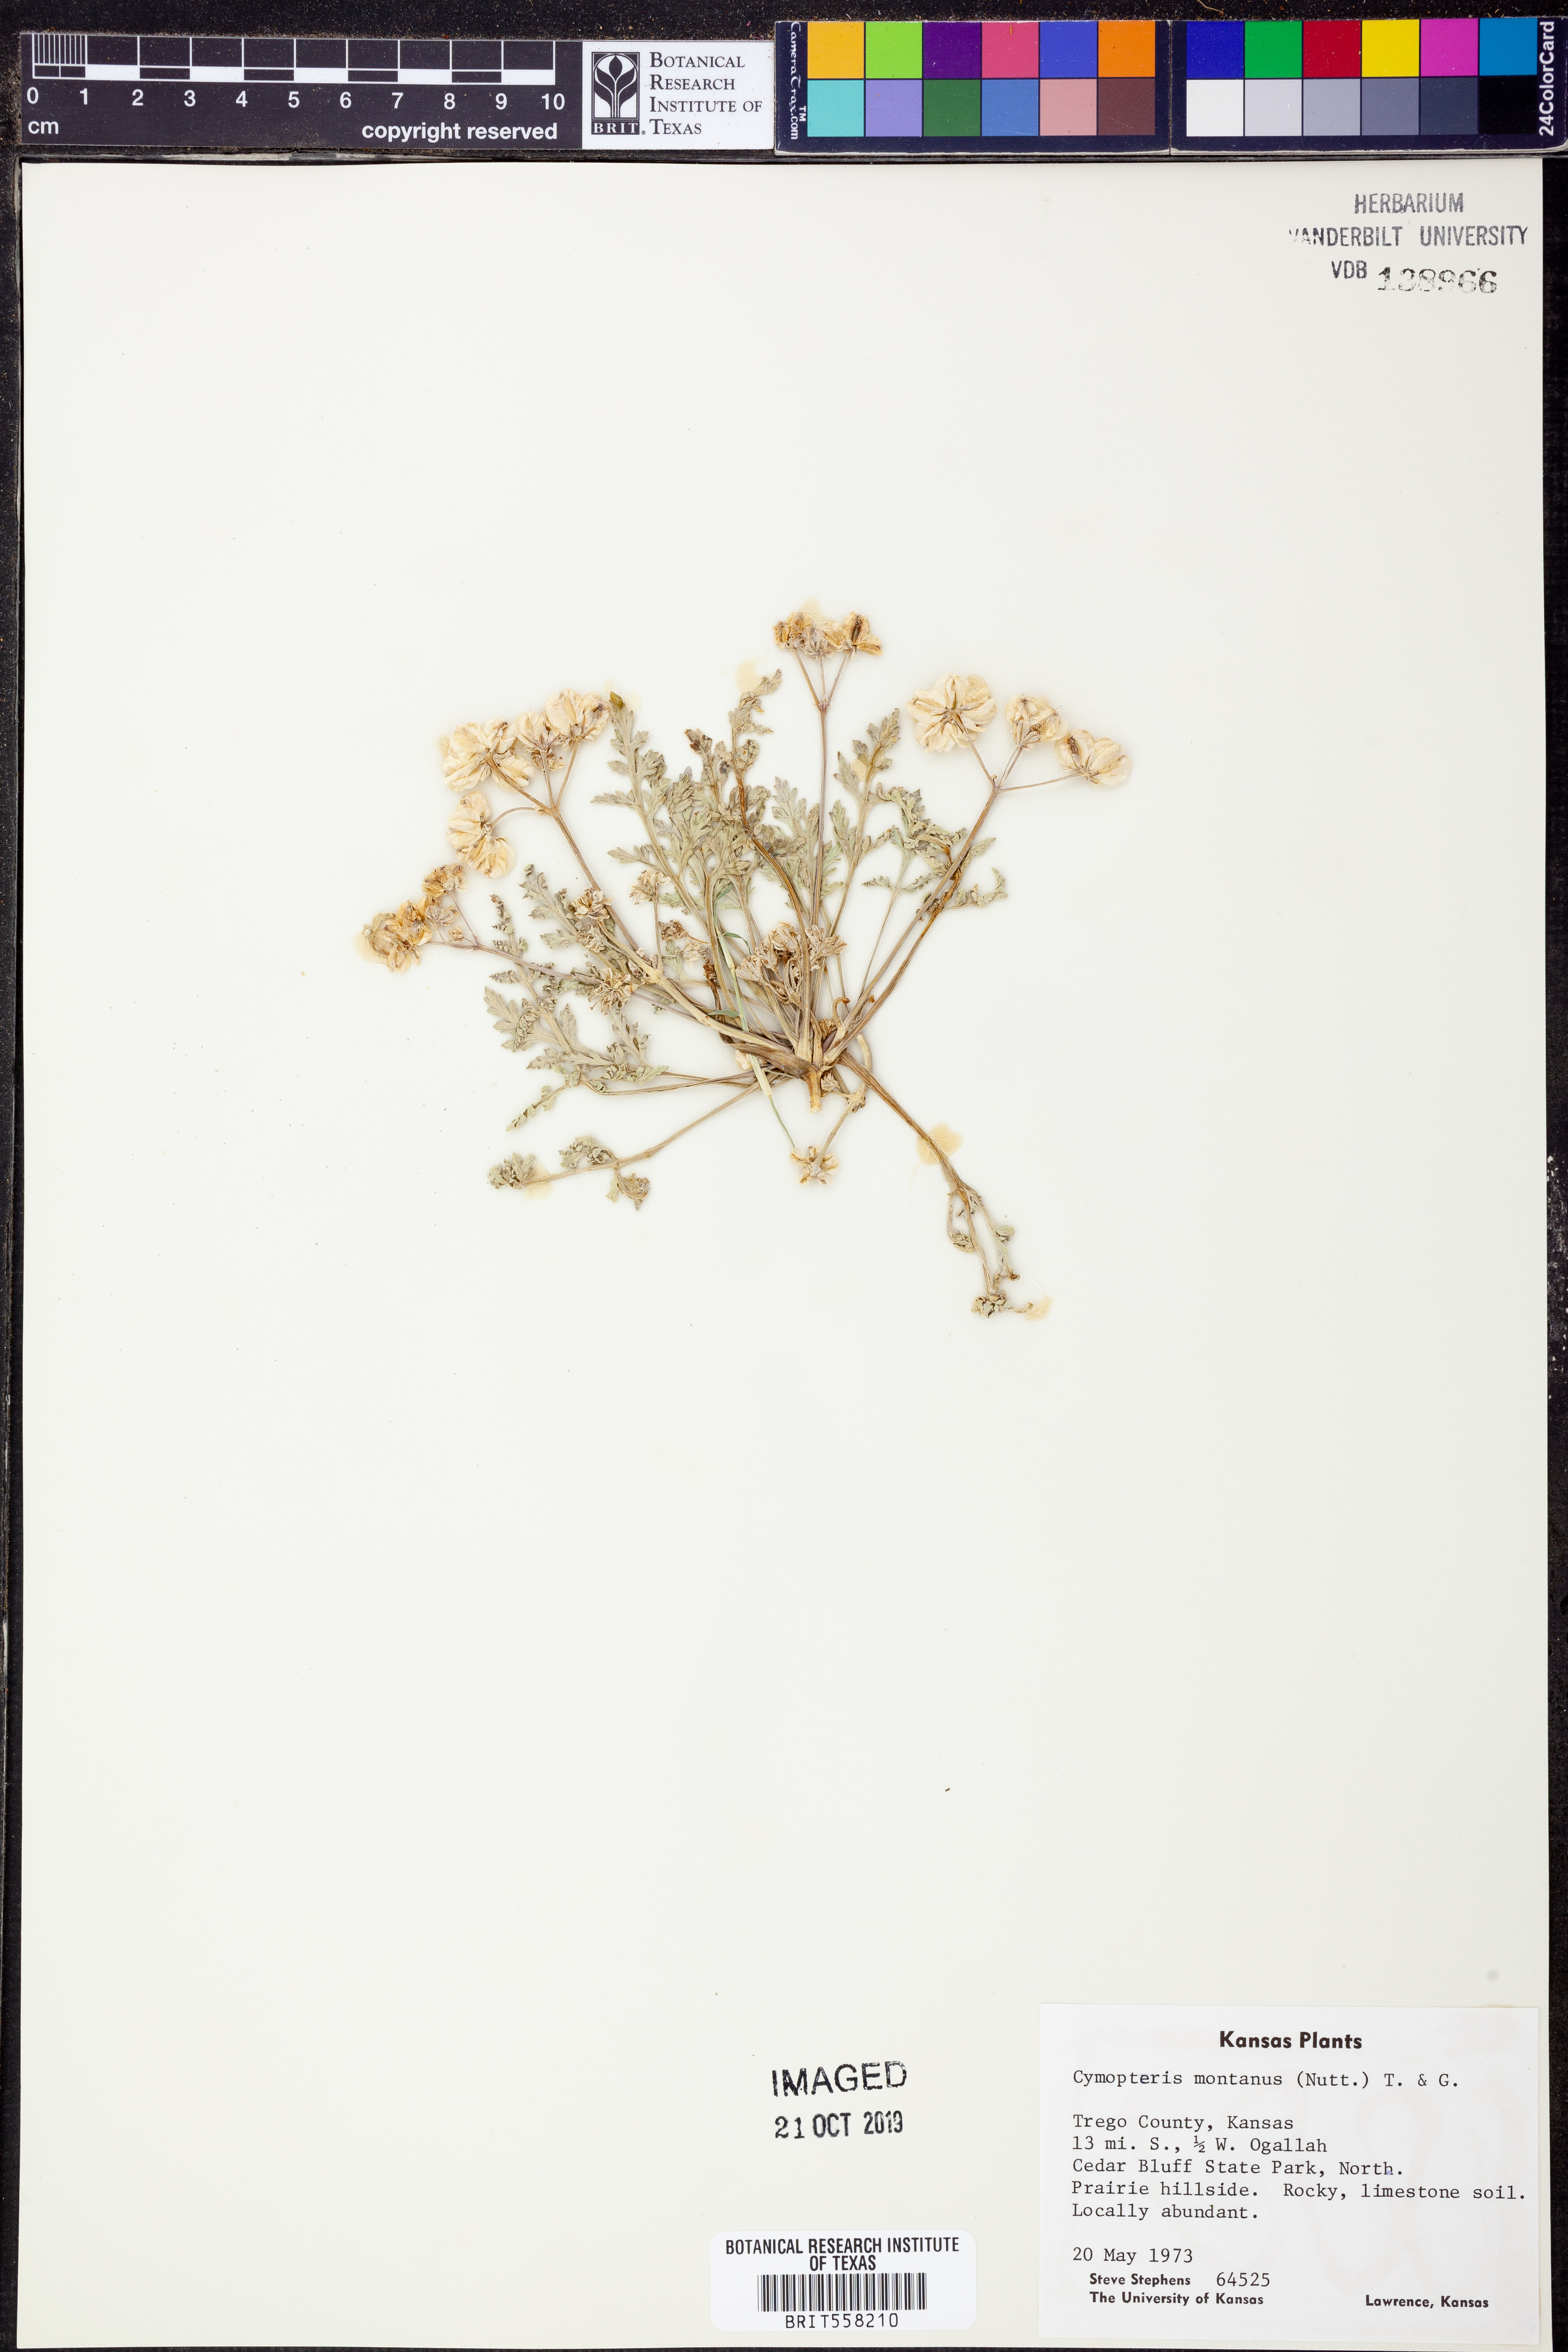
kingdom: Plantae
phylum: Tracheophyta
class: Magnoliopsida
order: Apiales
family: Apiaceae
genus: Vesper
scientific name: Vesper montanus
